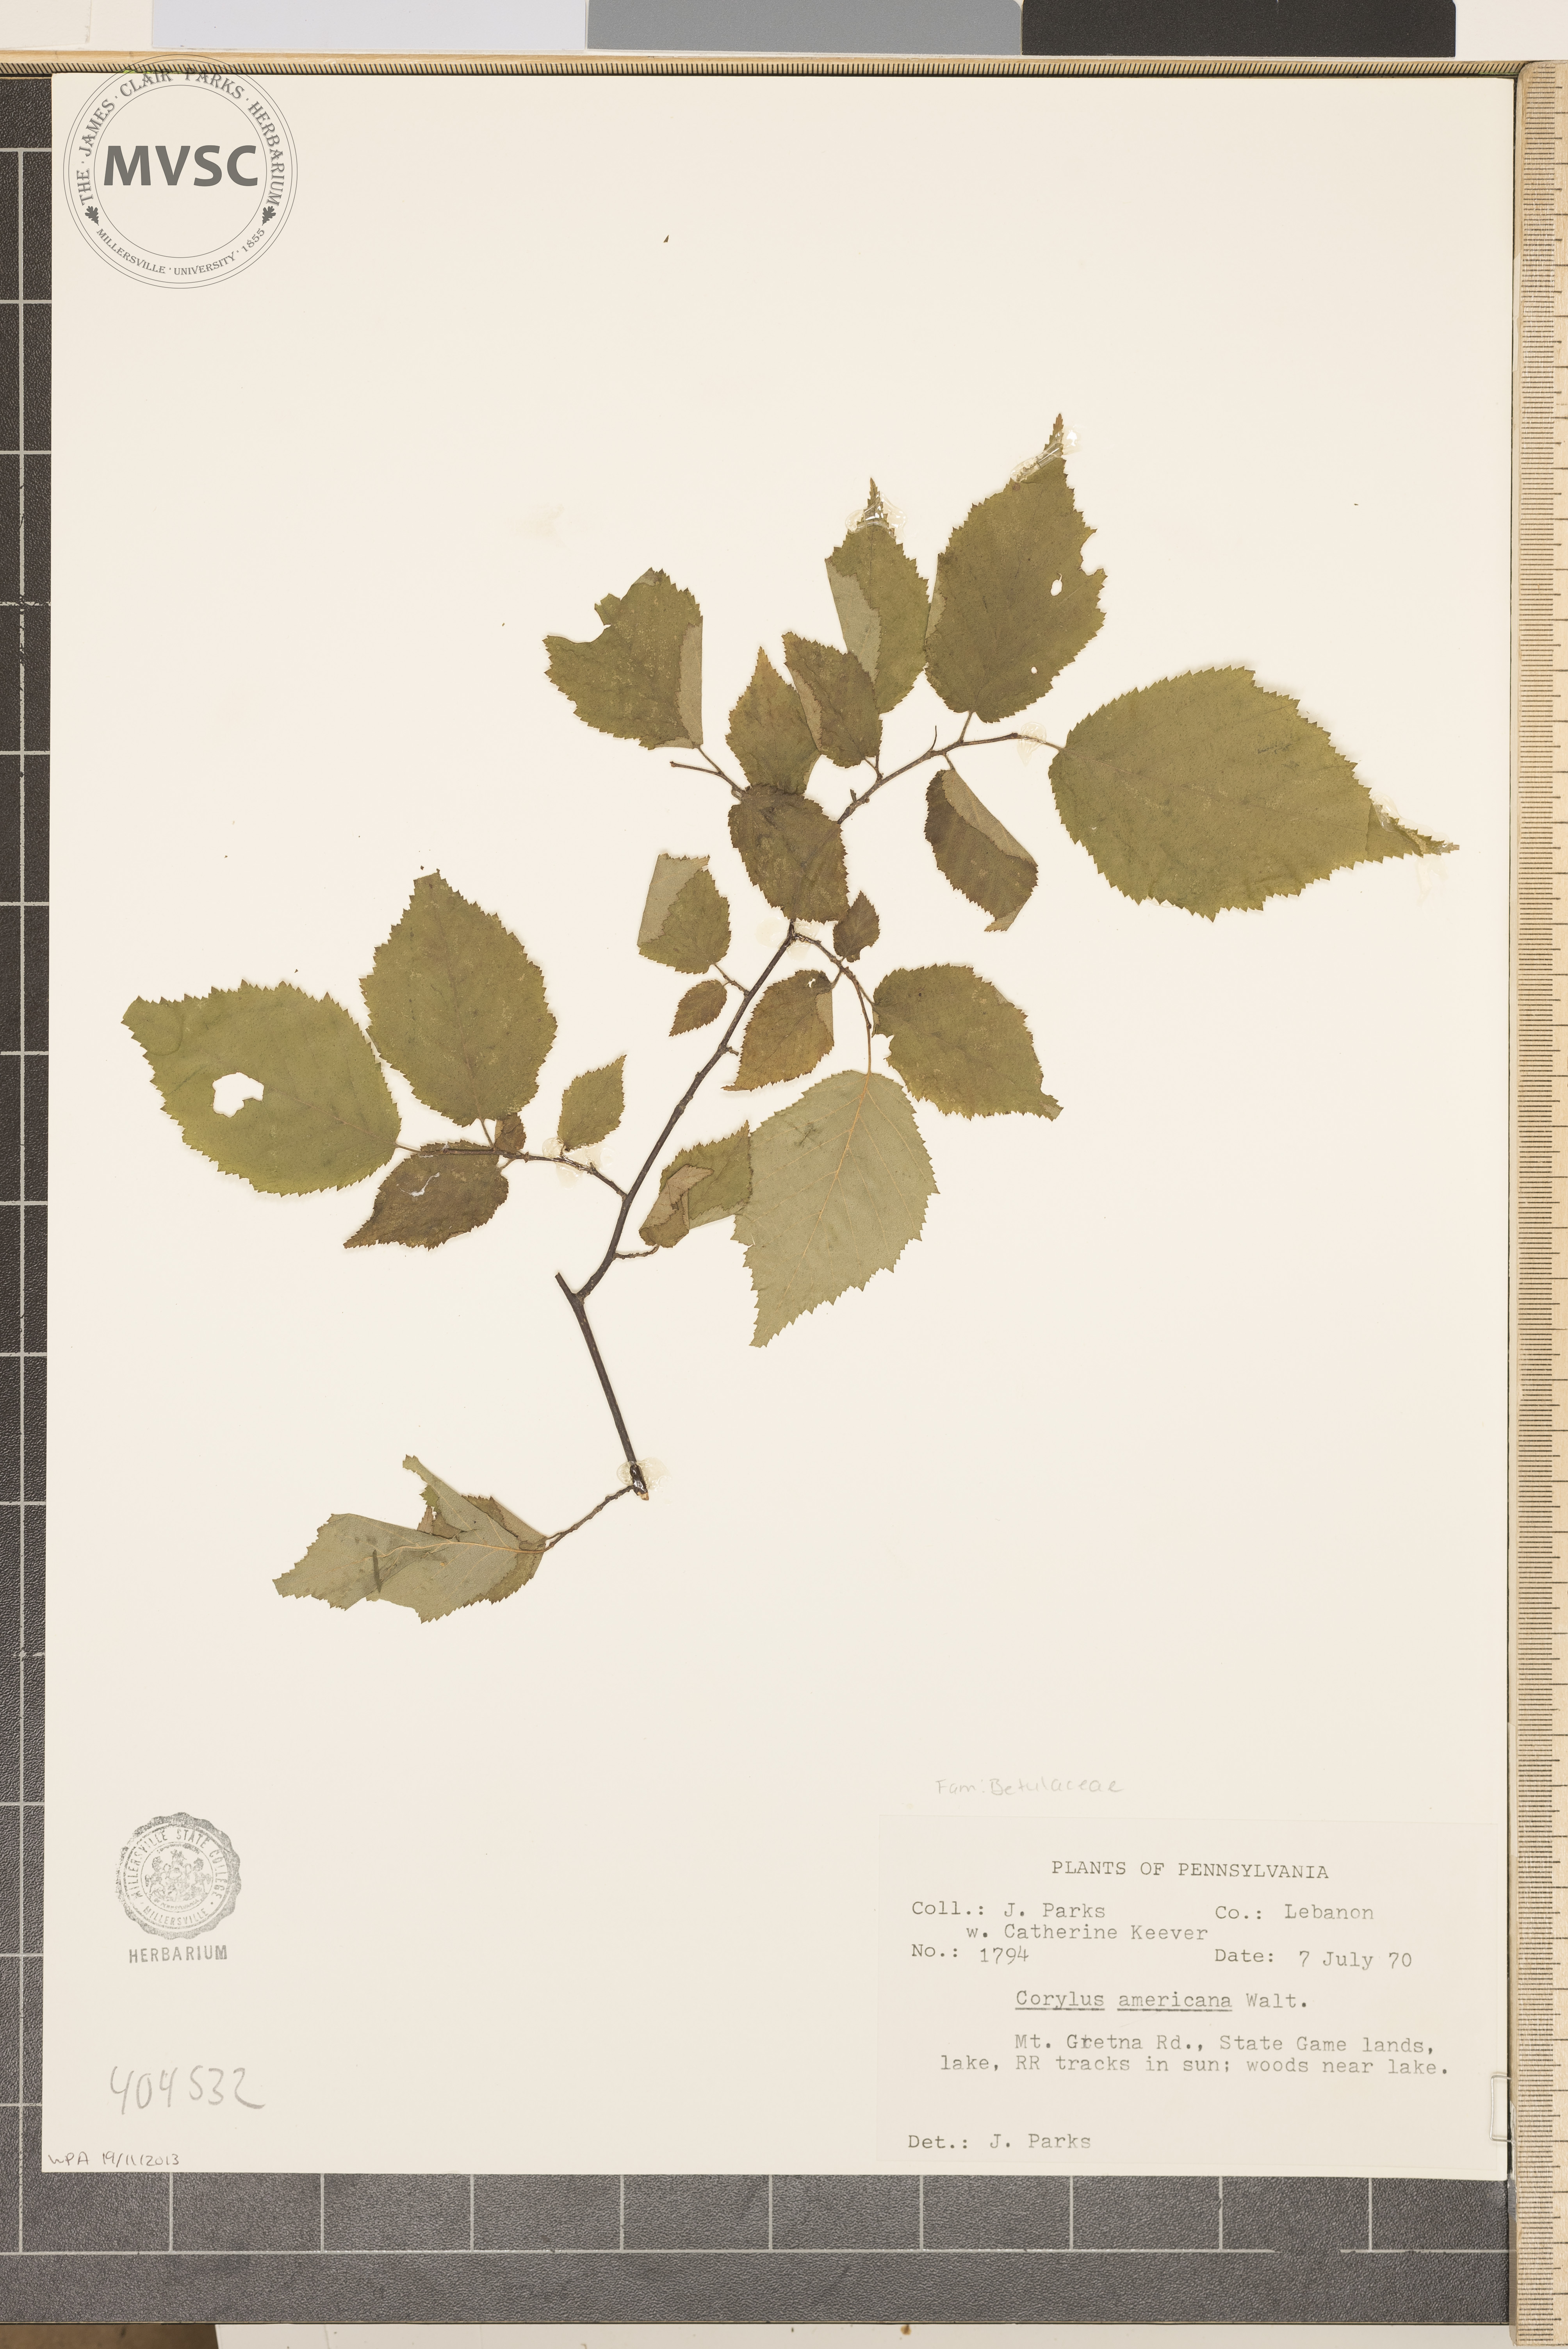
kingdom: Plantae
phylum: Tracheophyta
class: Magnoliopsida
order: Fagales
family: Betulaceae
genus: Corylus
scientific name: Corylus americana
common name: American hazel
